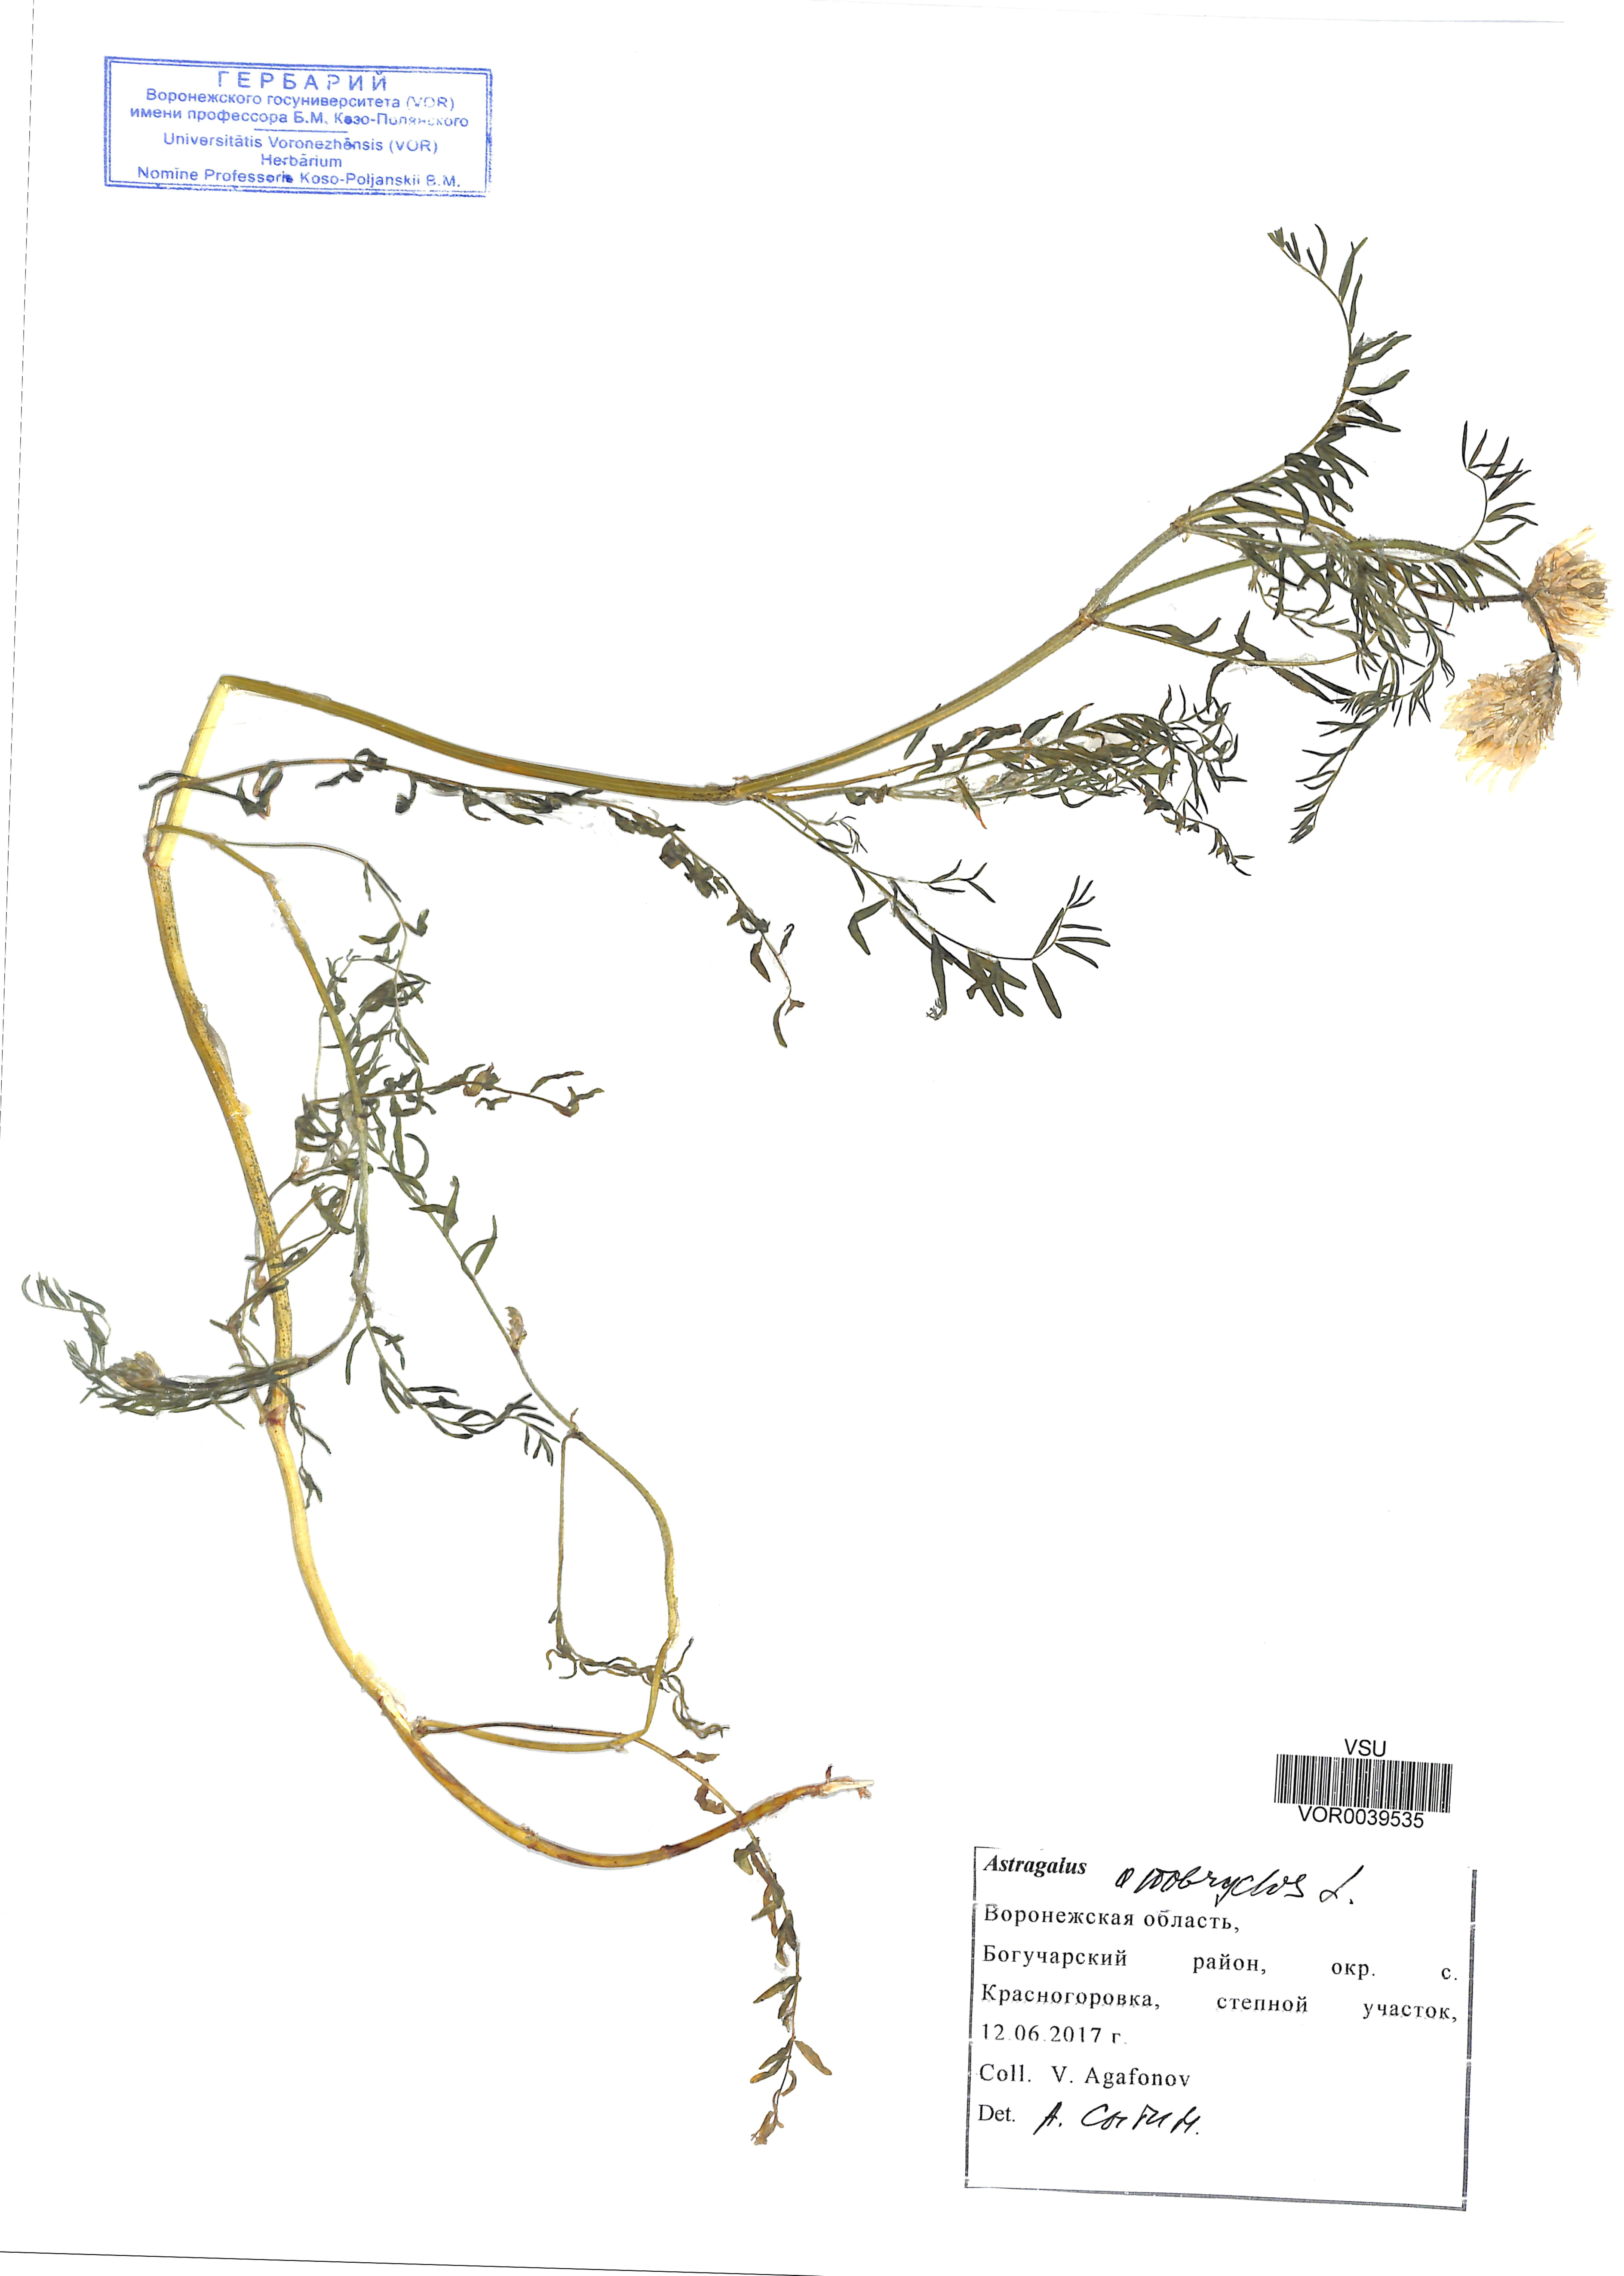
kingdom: Plantae
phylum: Tracheophyta
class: Magnoliopsida
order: Fabales
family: Fabaceae
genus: Astragalus
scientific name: Astragalus onobrychis
